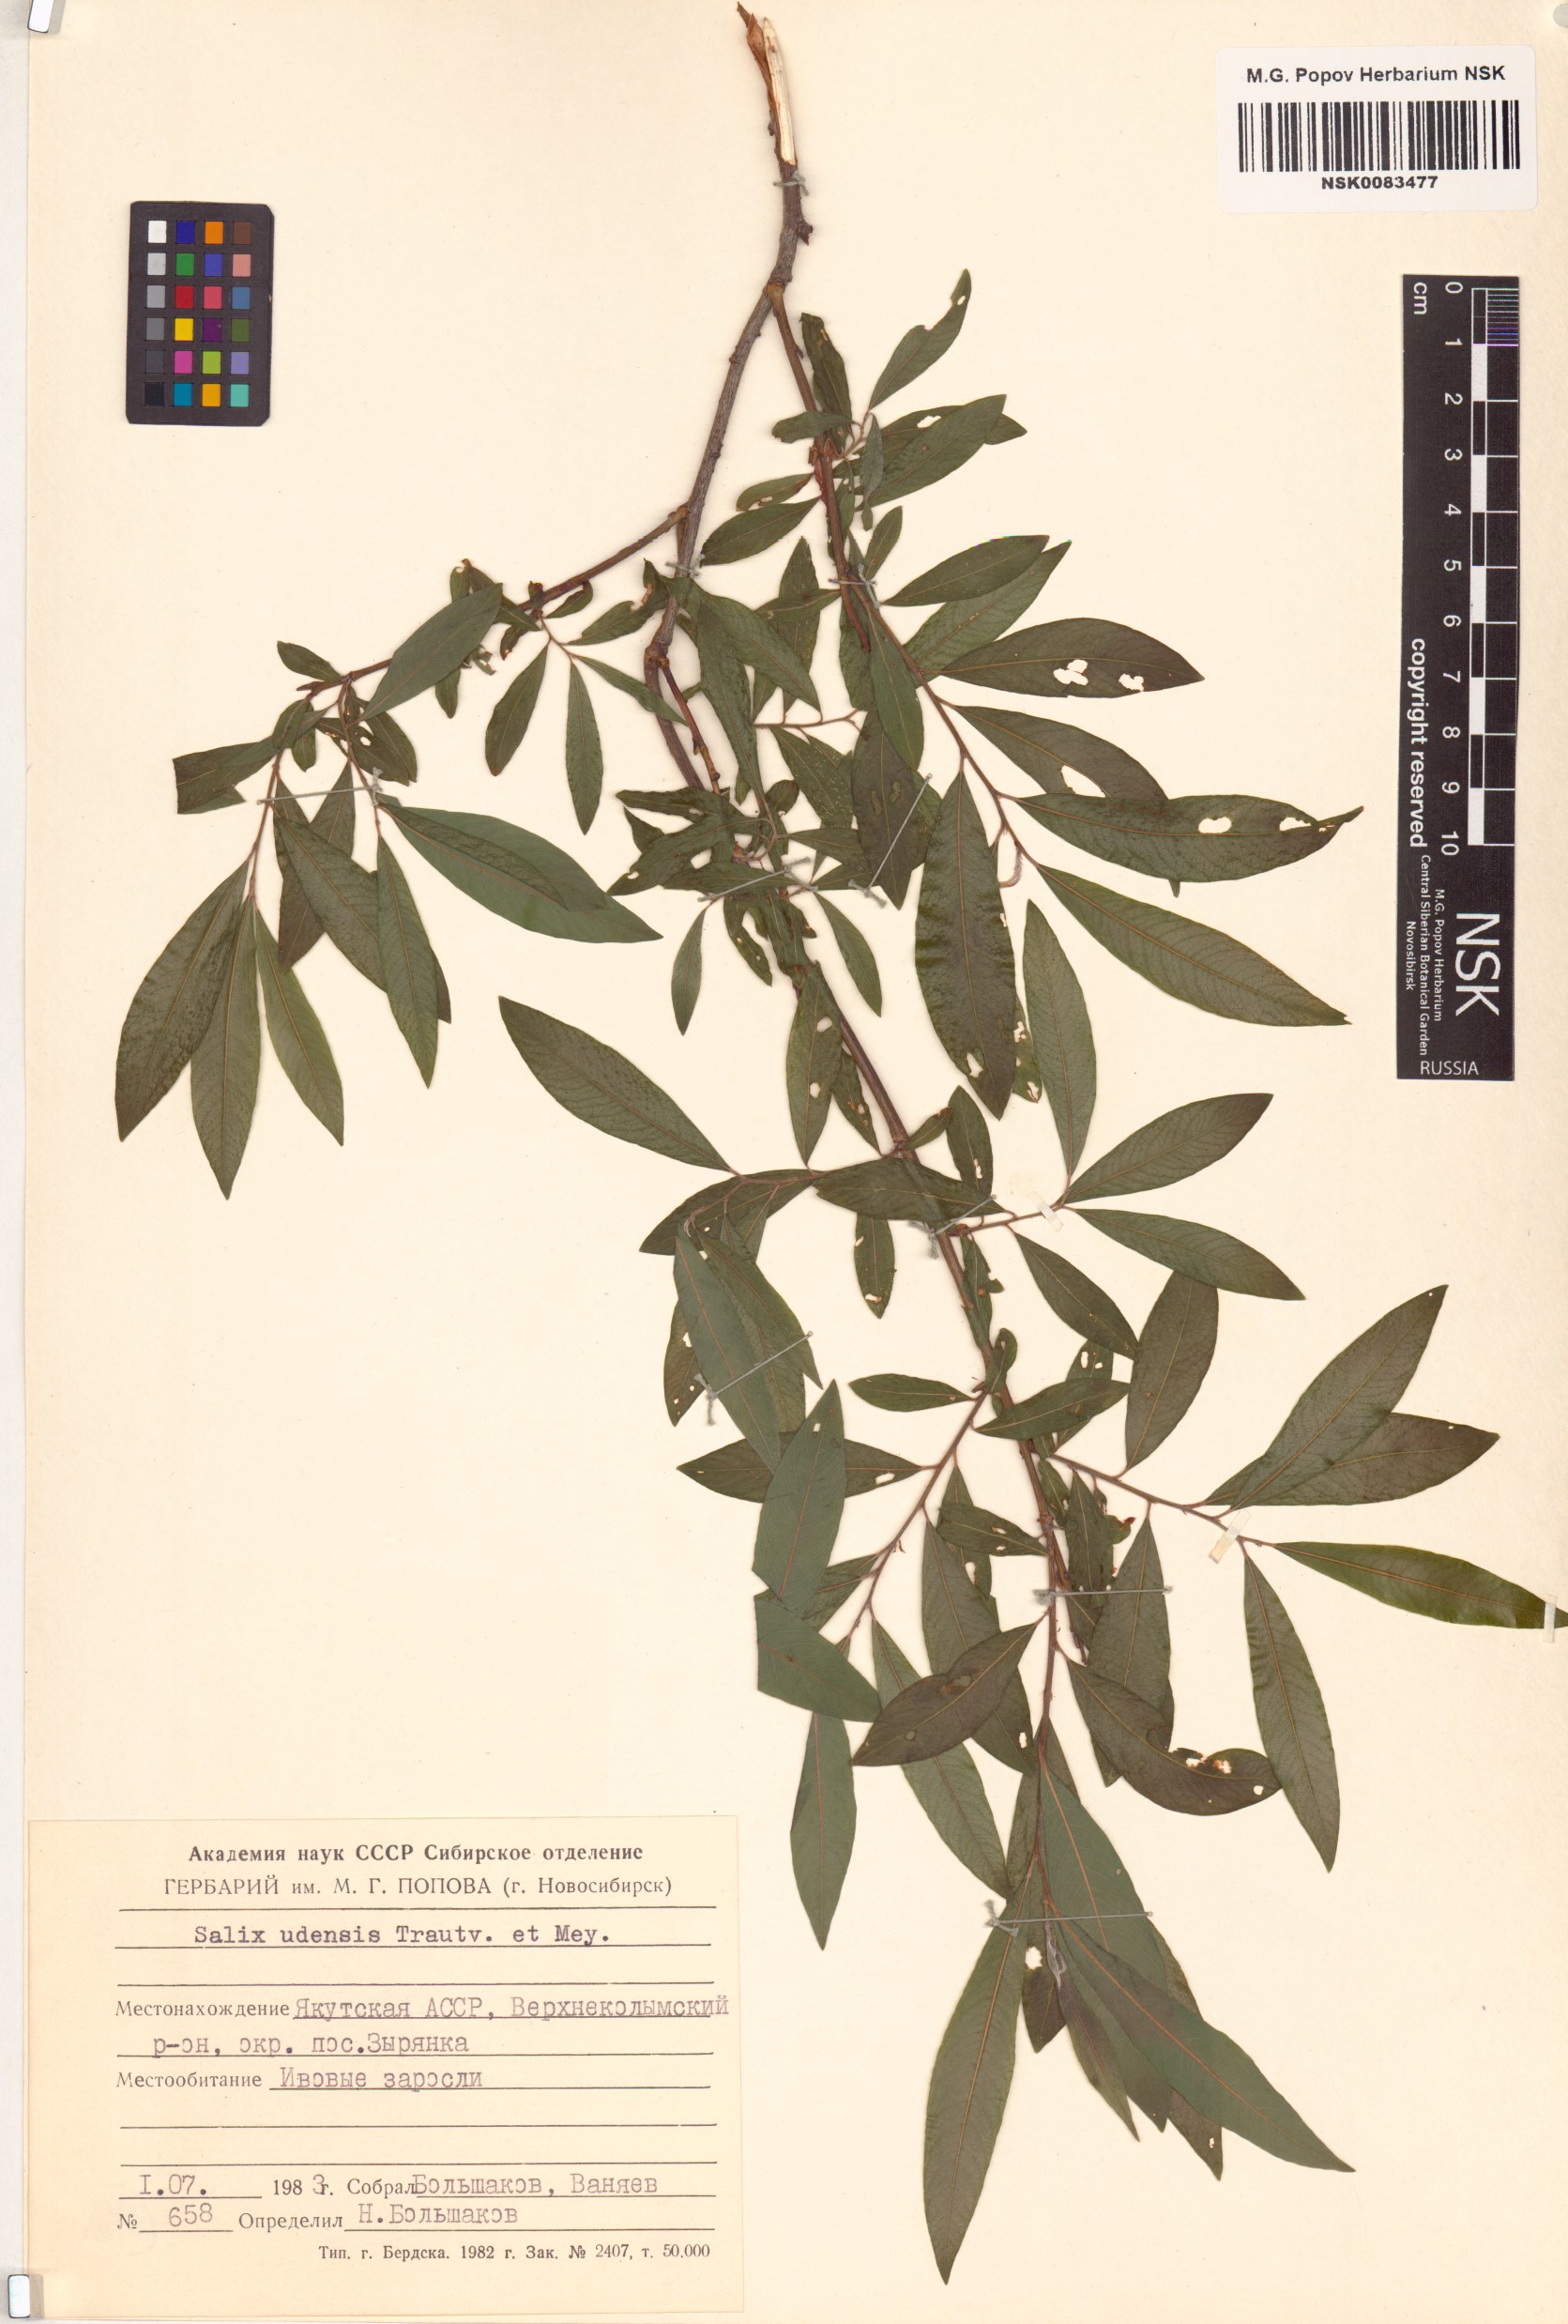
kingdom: Plantae
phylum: Tracheophyta
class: Magnoliopsida
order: Malpighiales
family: Salicaceae
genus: Salix
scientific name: Salix udensis
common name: Sachalin willow
